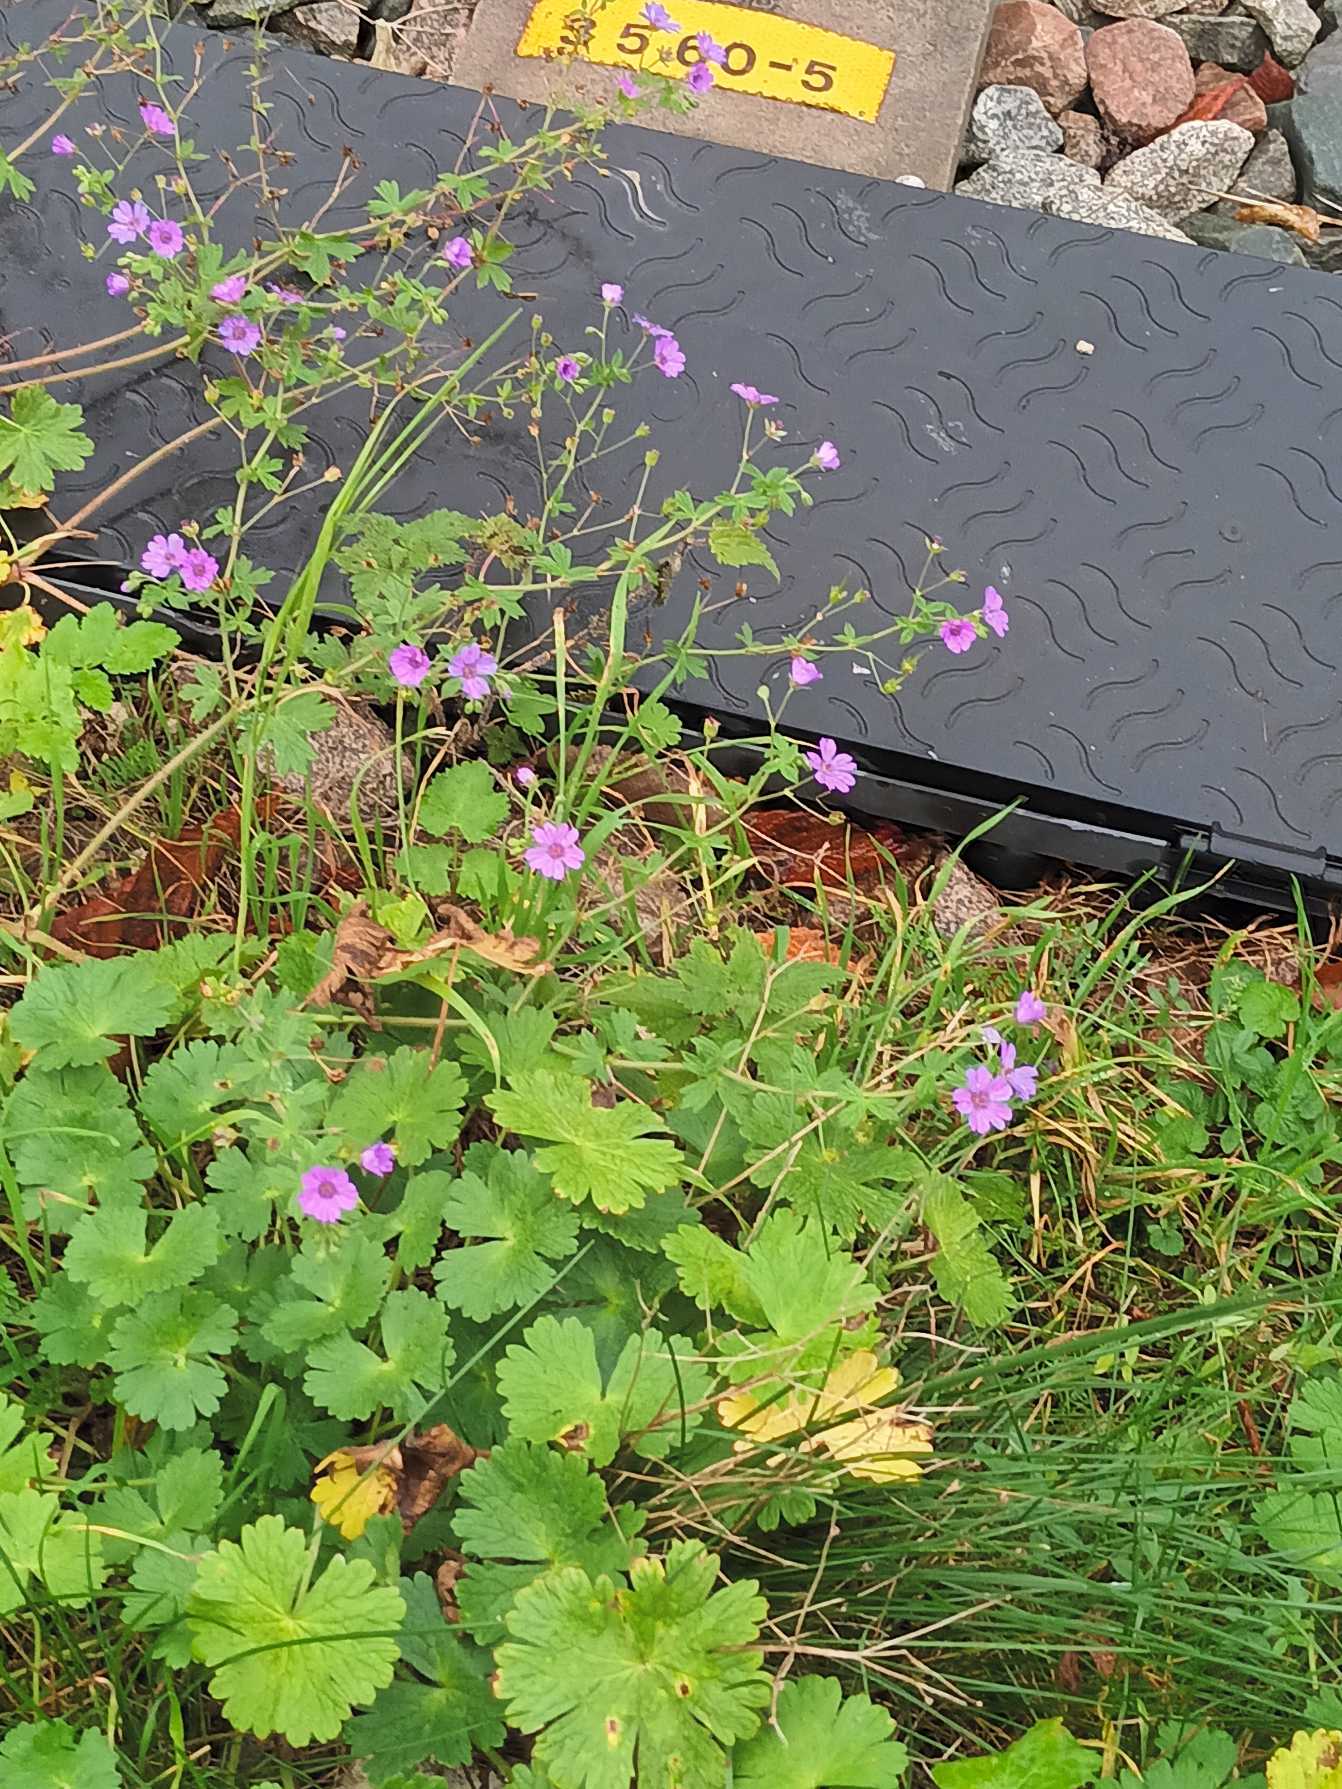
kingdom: Plantae
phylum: Tracheophyta
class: Magnoliopsida
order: Geraniales
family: Geraniaceae
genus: Geranium
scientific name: Geranium pyrenaicum
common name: Pyrenæisk storkenæb
